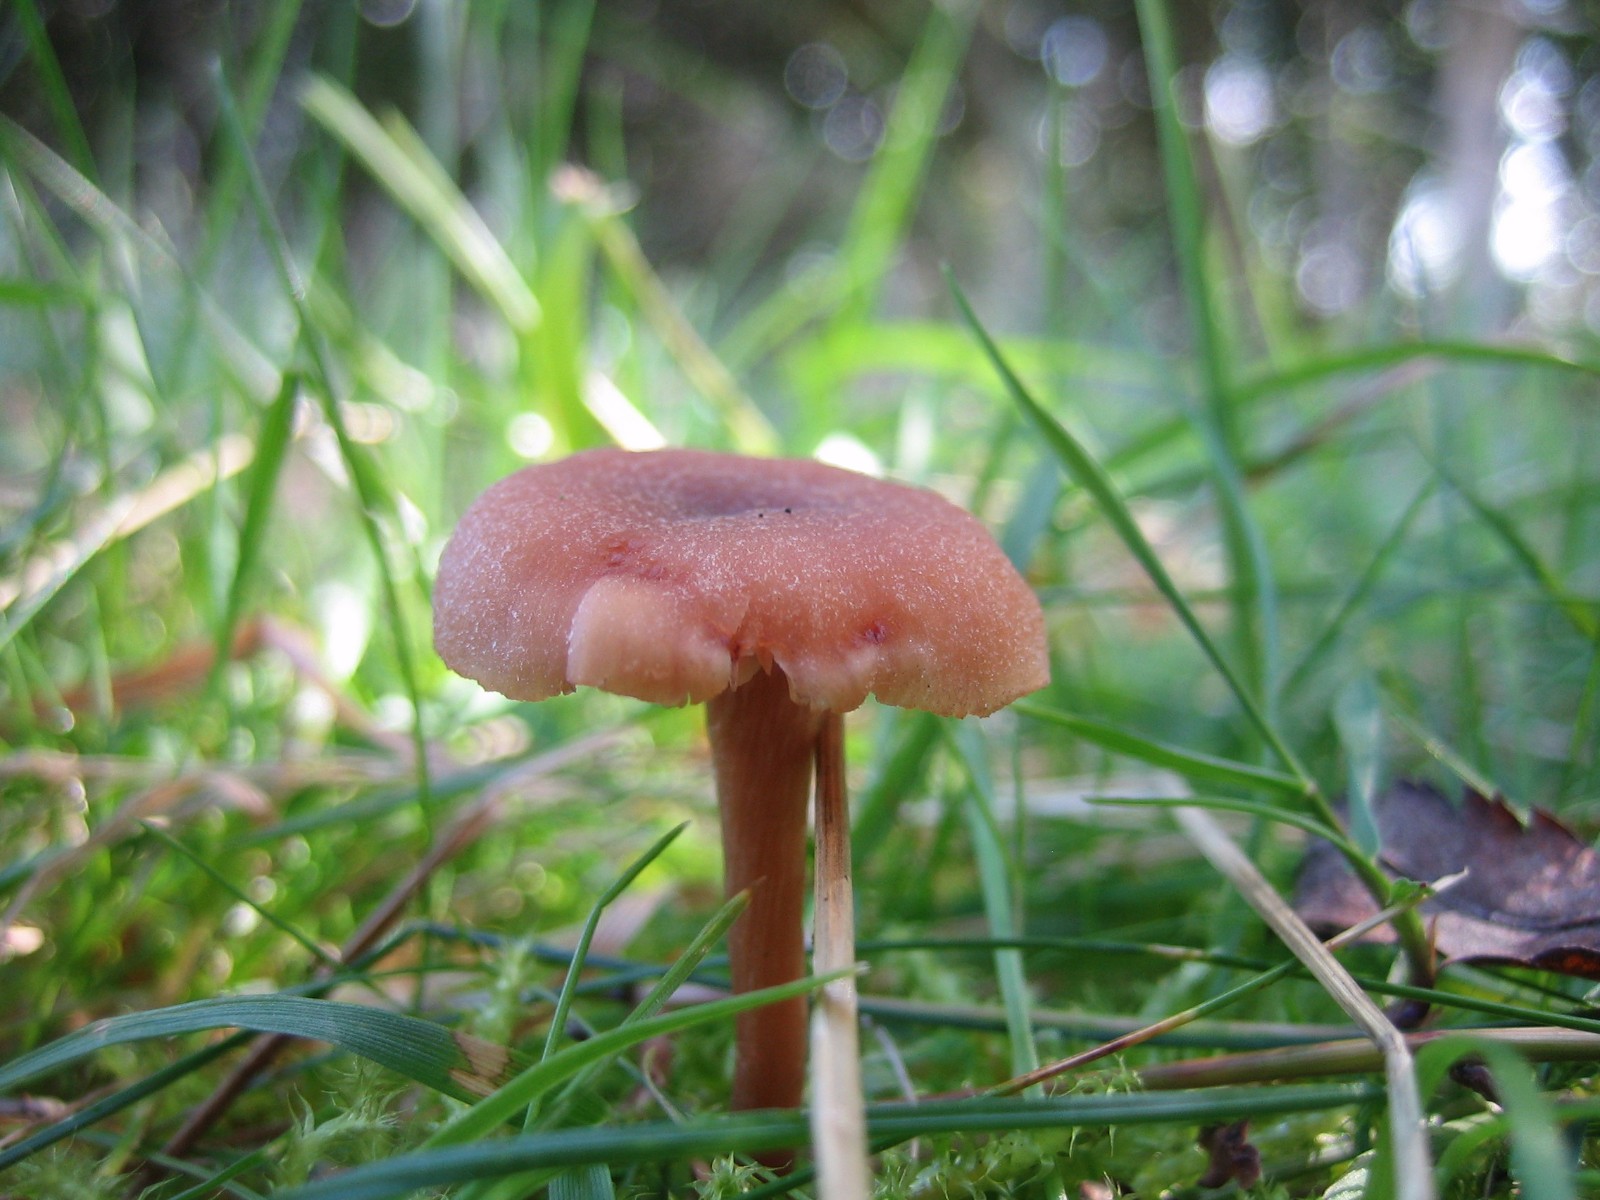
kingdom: Fungi
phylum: Basidiomycota
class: Agaricomycetes
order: Agaricales
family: Hydnangiaceae
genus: Laccaria
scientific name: Laccaria laccata
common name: rød ametysthat
